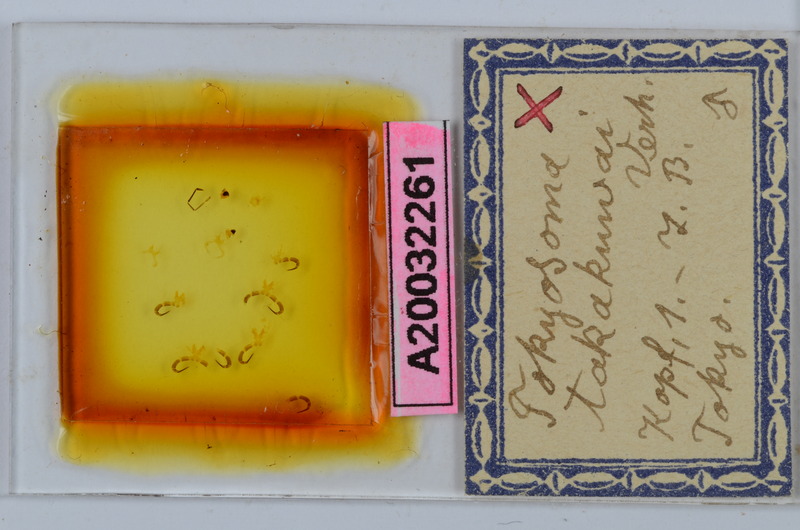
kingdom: Animalia
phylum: Arthropoda
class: Diplopoda
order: Chordeumatida
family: Diplomaragnidae
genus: Tokyosoma
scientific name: Tokyosoma takakuwai
